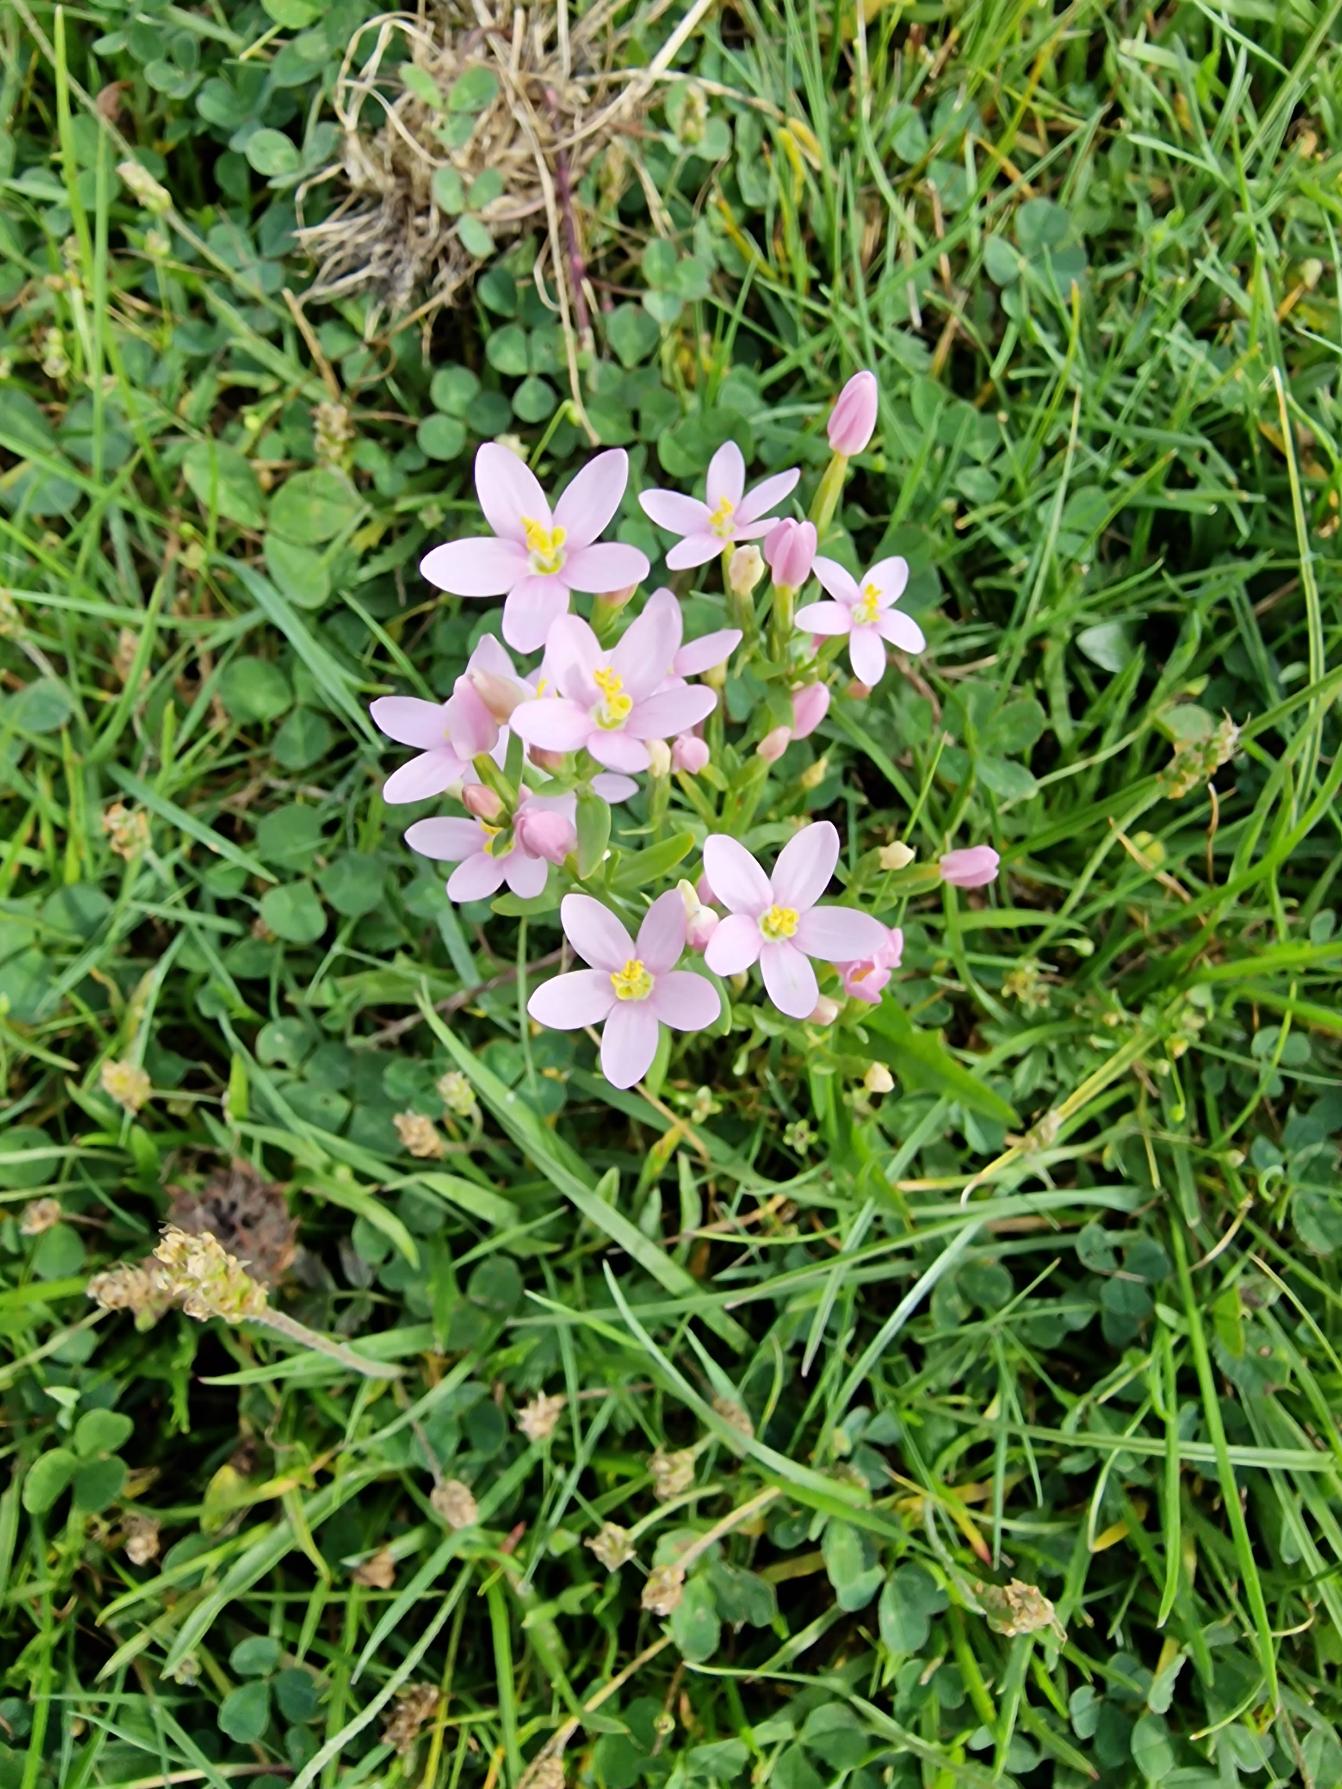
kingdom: Plantae
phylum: Tracheophyta
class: Magnoliopsida
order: Gentianales
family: Gentianaceae
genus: Centaurium
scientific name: Centaurium erythraea
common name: Mark-tusindgylden
